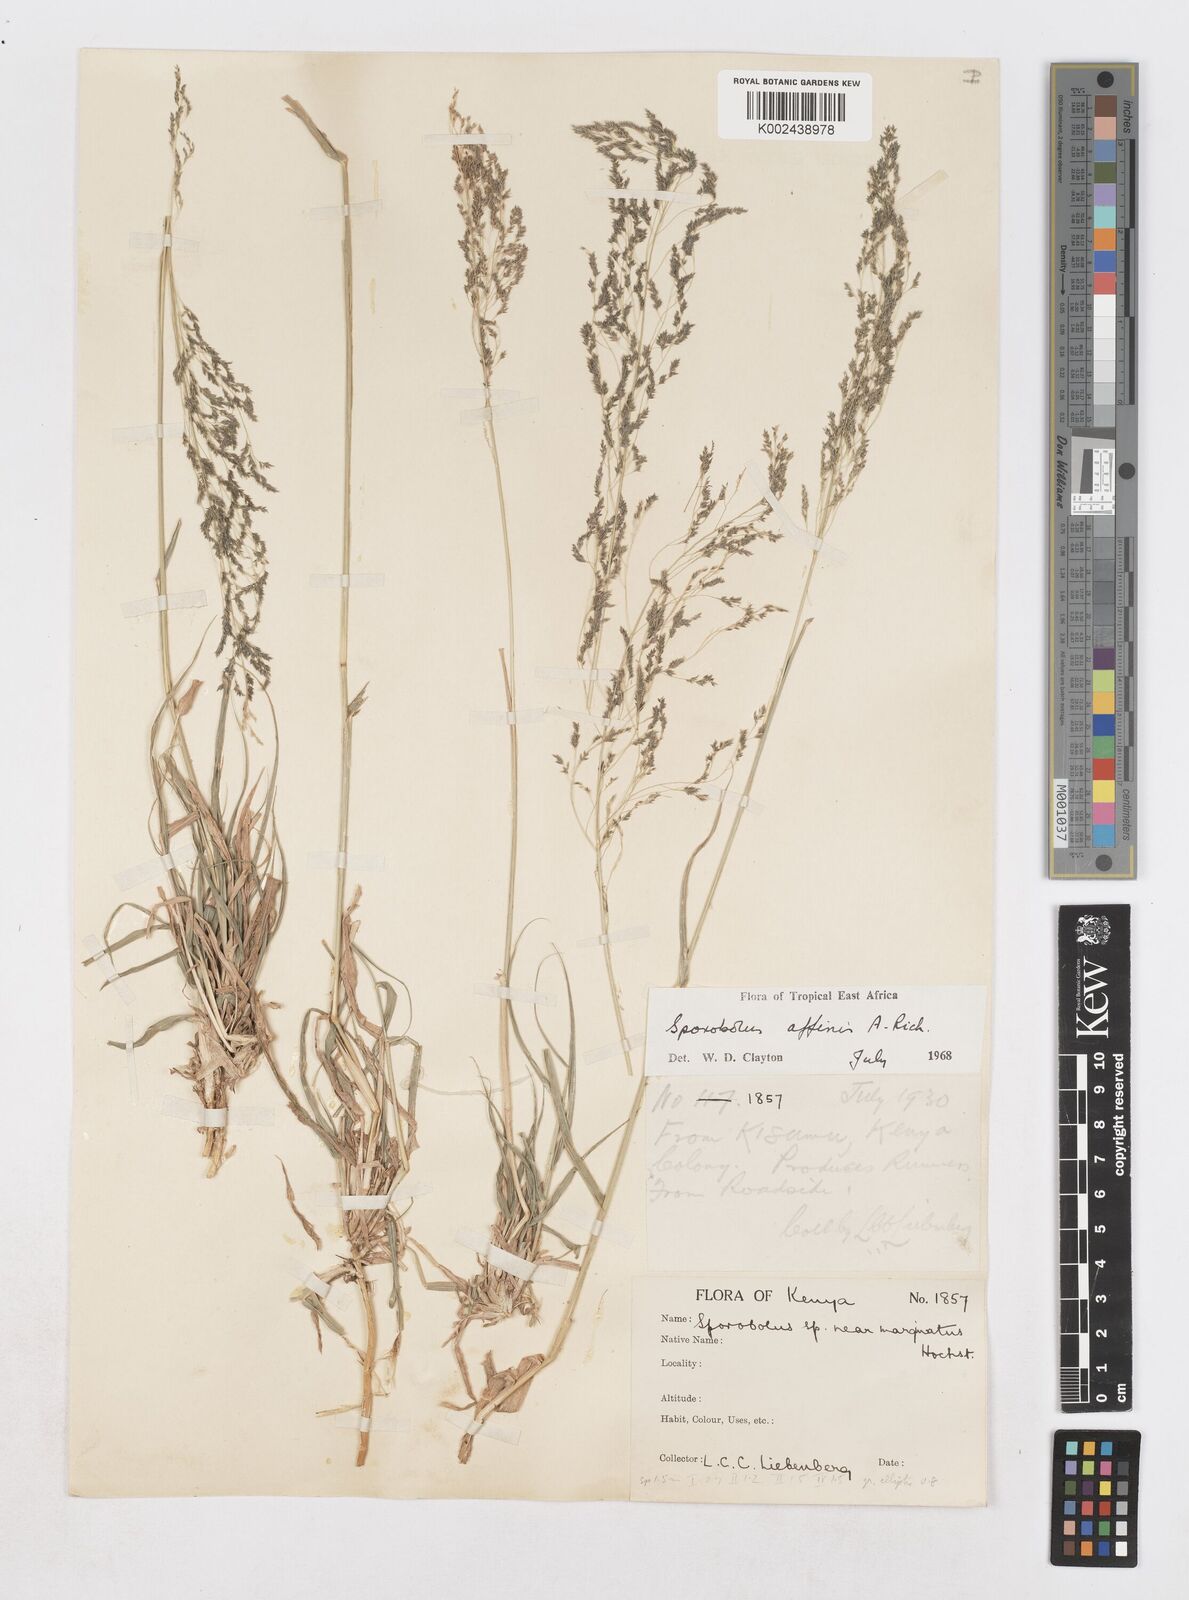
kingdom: Plantae
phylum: Tracheophyta
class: Liliopsida
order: Poales
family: Poaceae
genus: Sporobolus
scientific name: Sporobolus confinis
